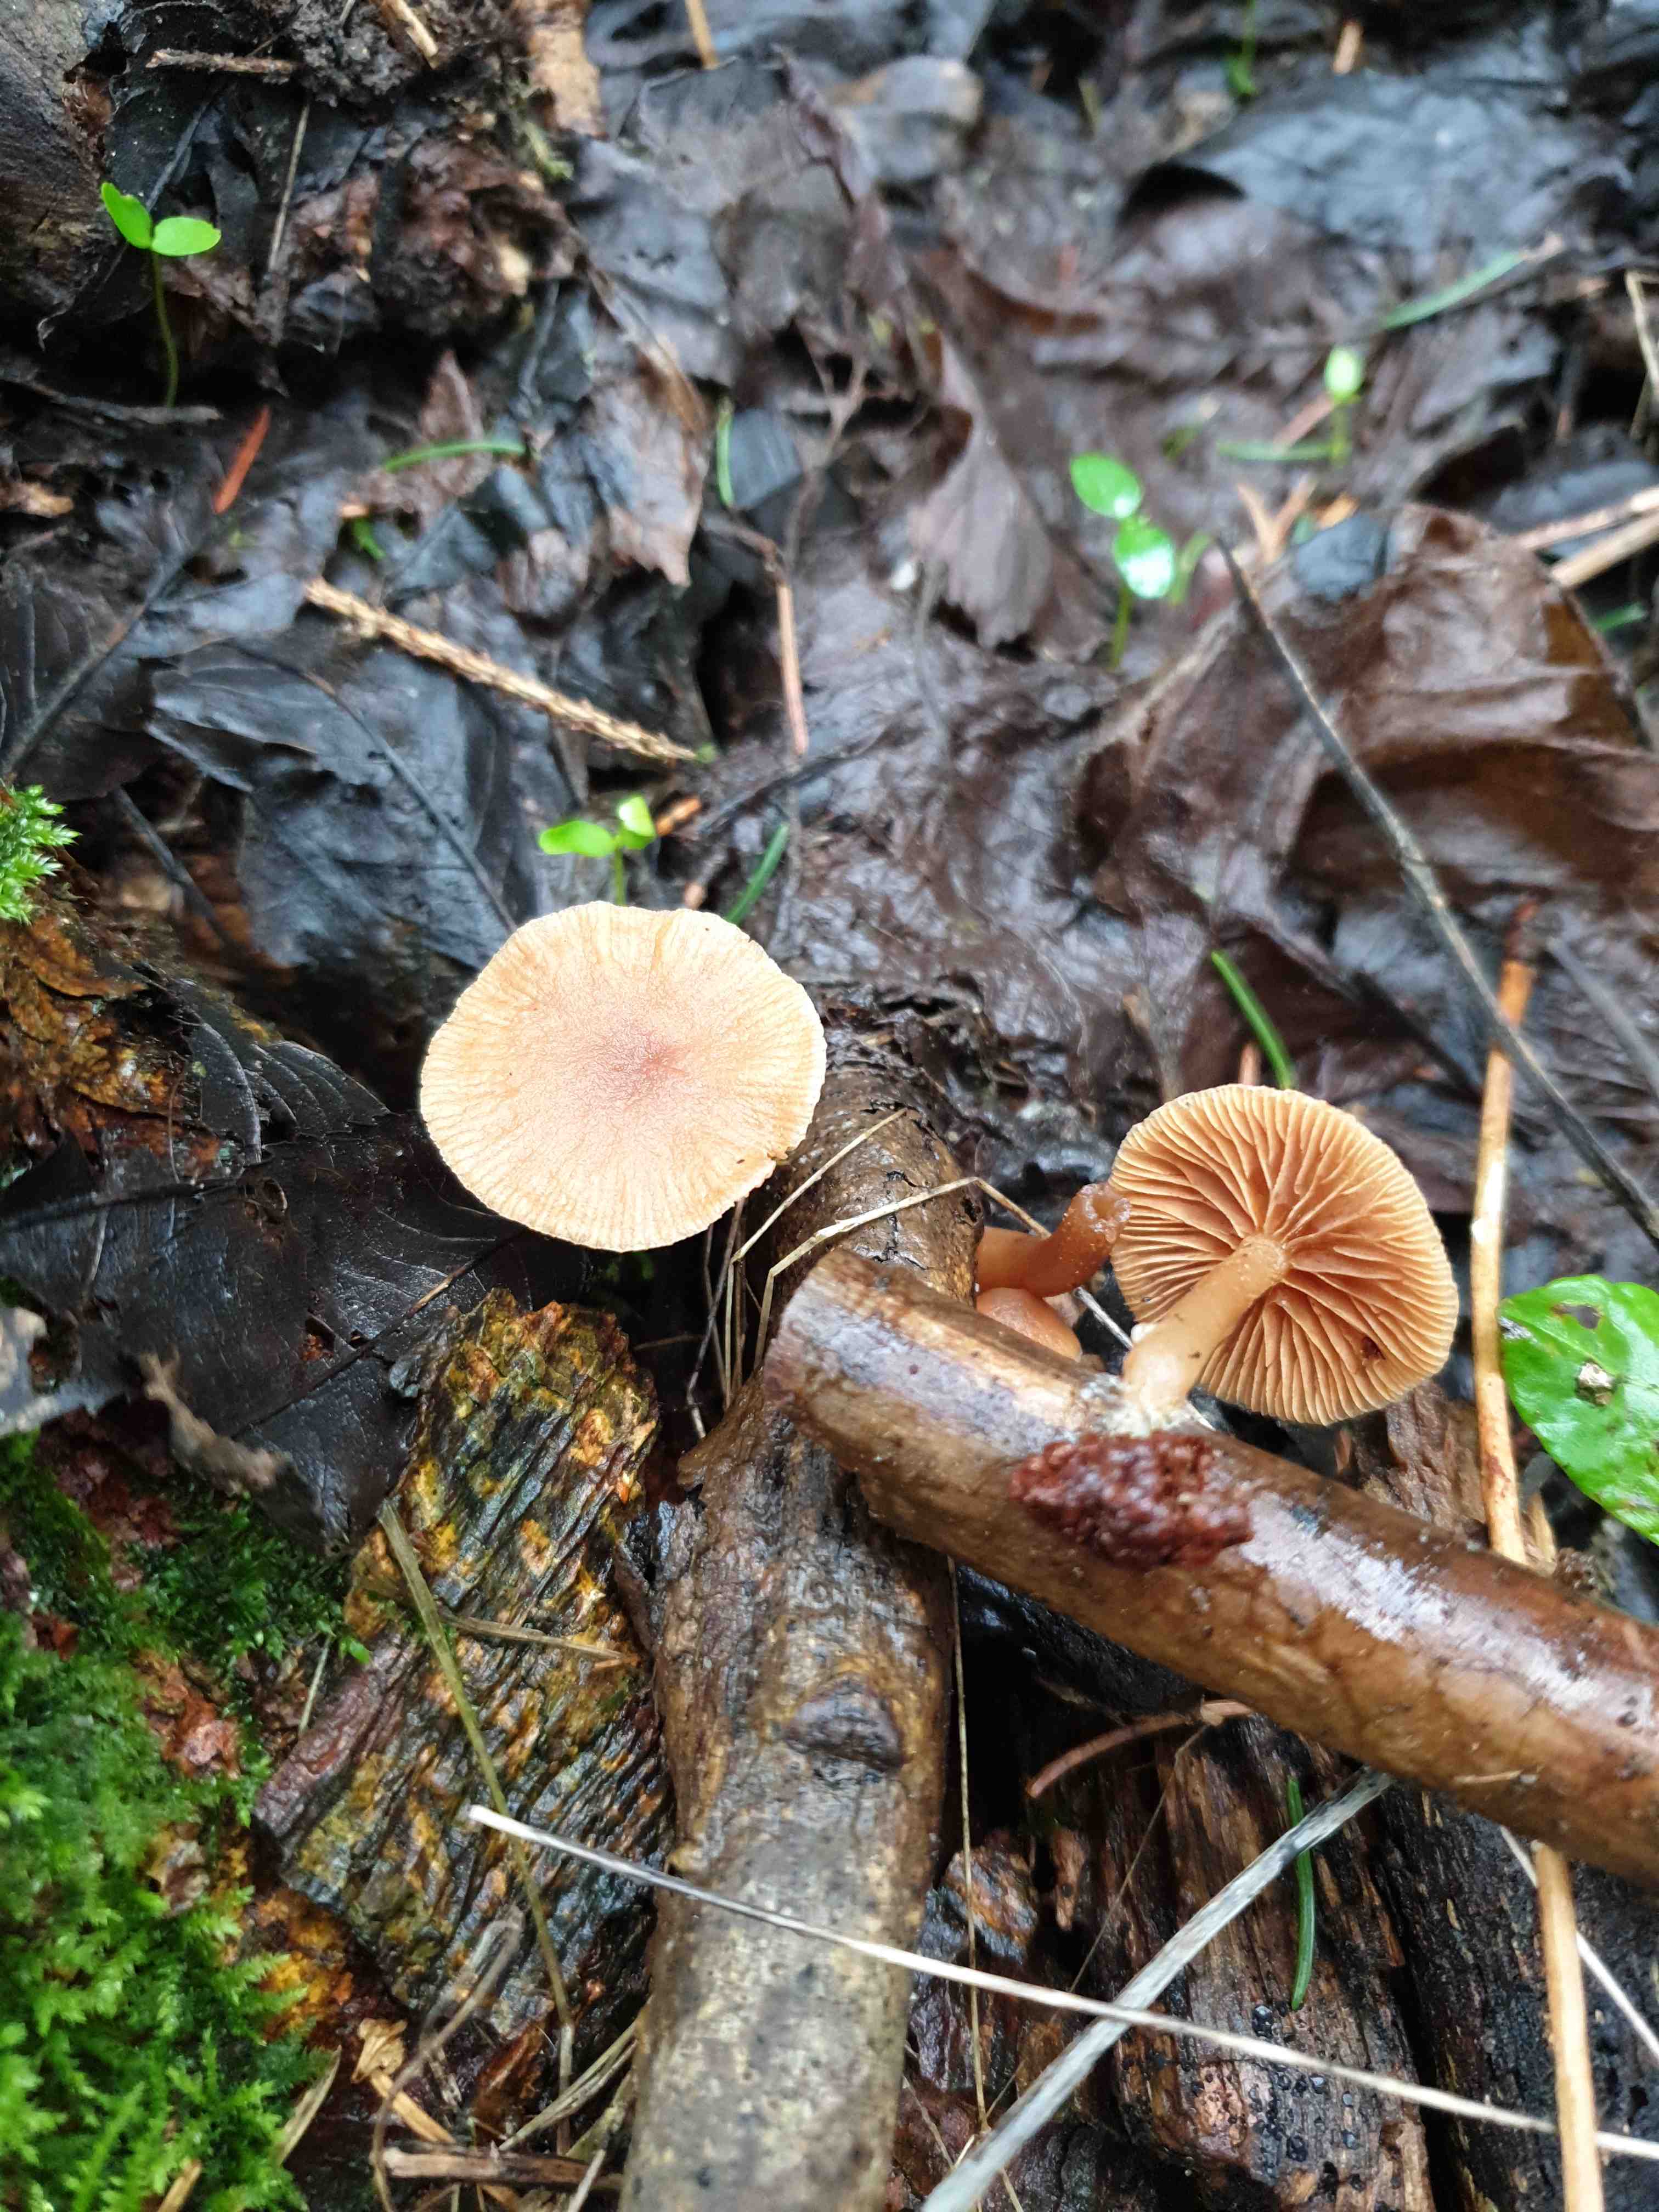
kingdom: Fungi
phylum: Basidiomycota
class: Agaricomycetes
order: Agaricales
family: Tubariaceae
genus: Tubaria
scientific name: Tubaria furfuracea
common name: kliddet fnughat
